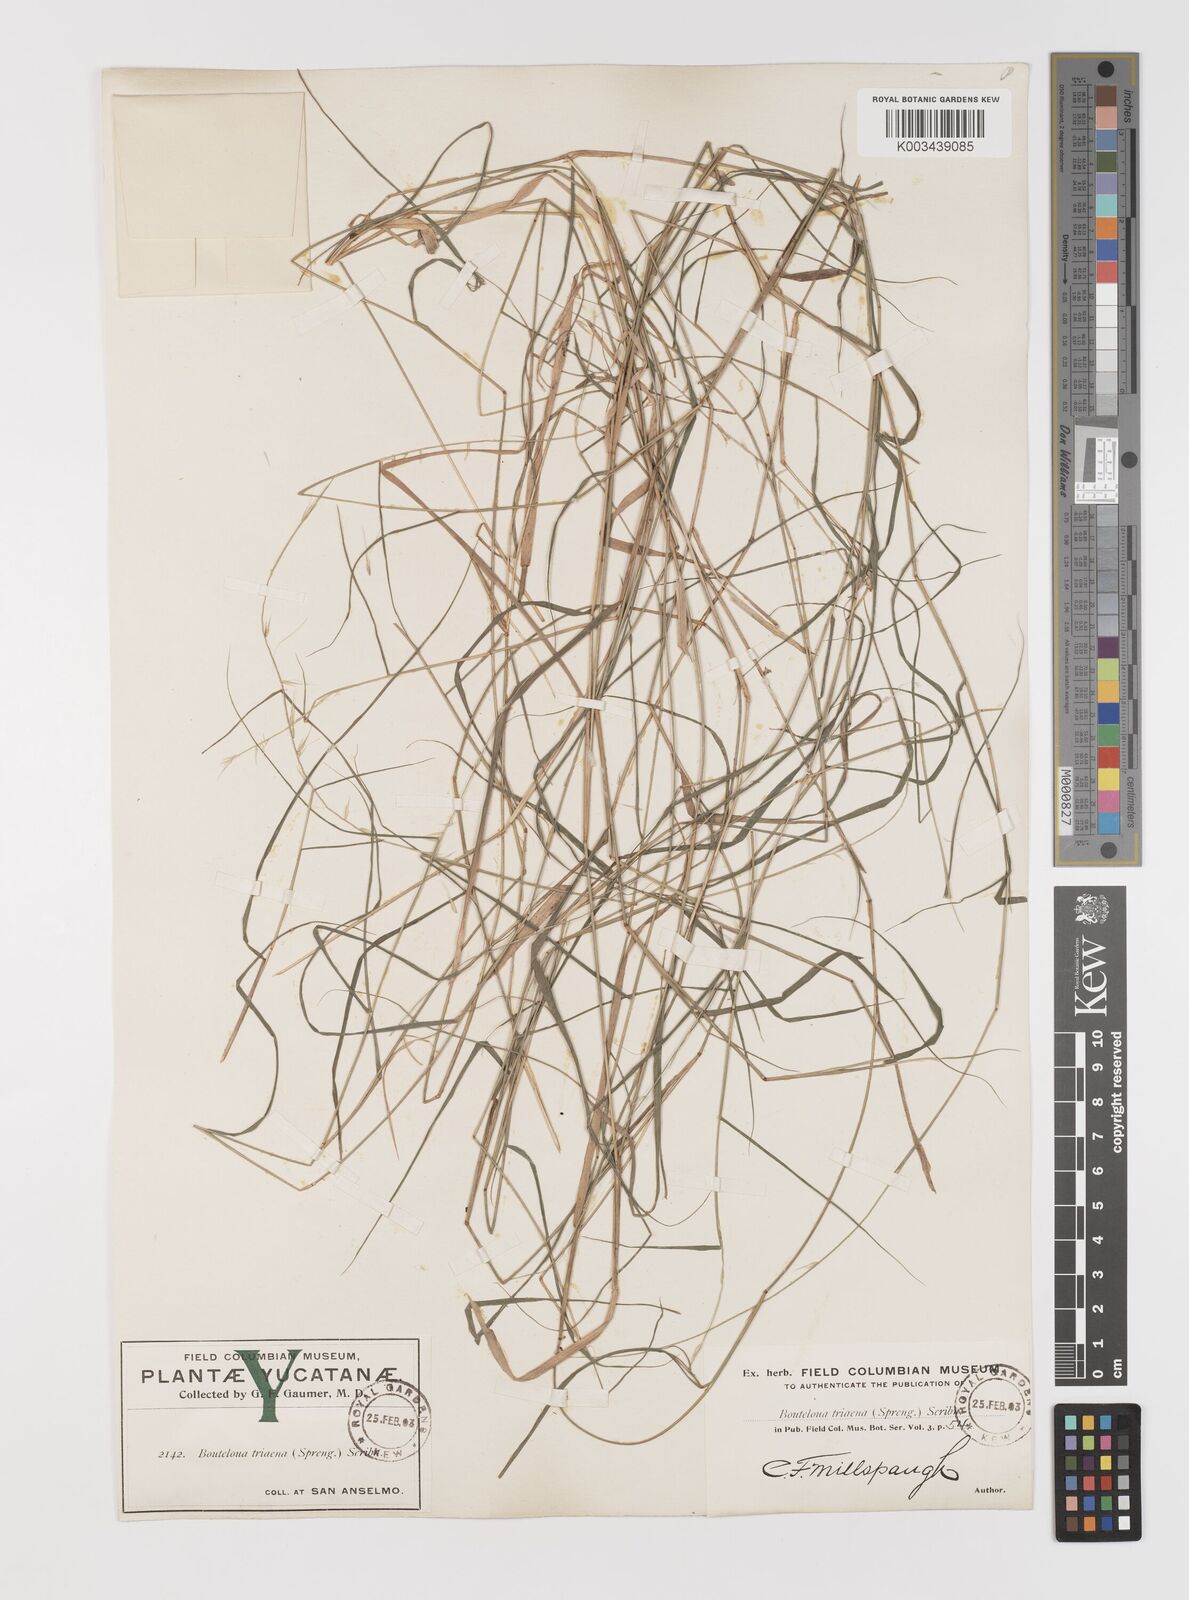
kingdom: Plantae
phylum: Tracheophyta
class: Liliopsida
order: Poales
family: Poaceae
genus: Bouteloua
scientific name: Bouteloua triaena
